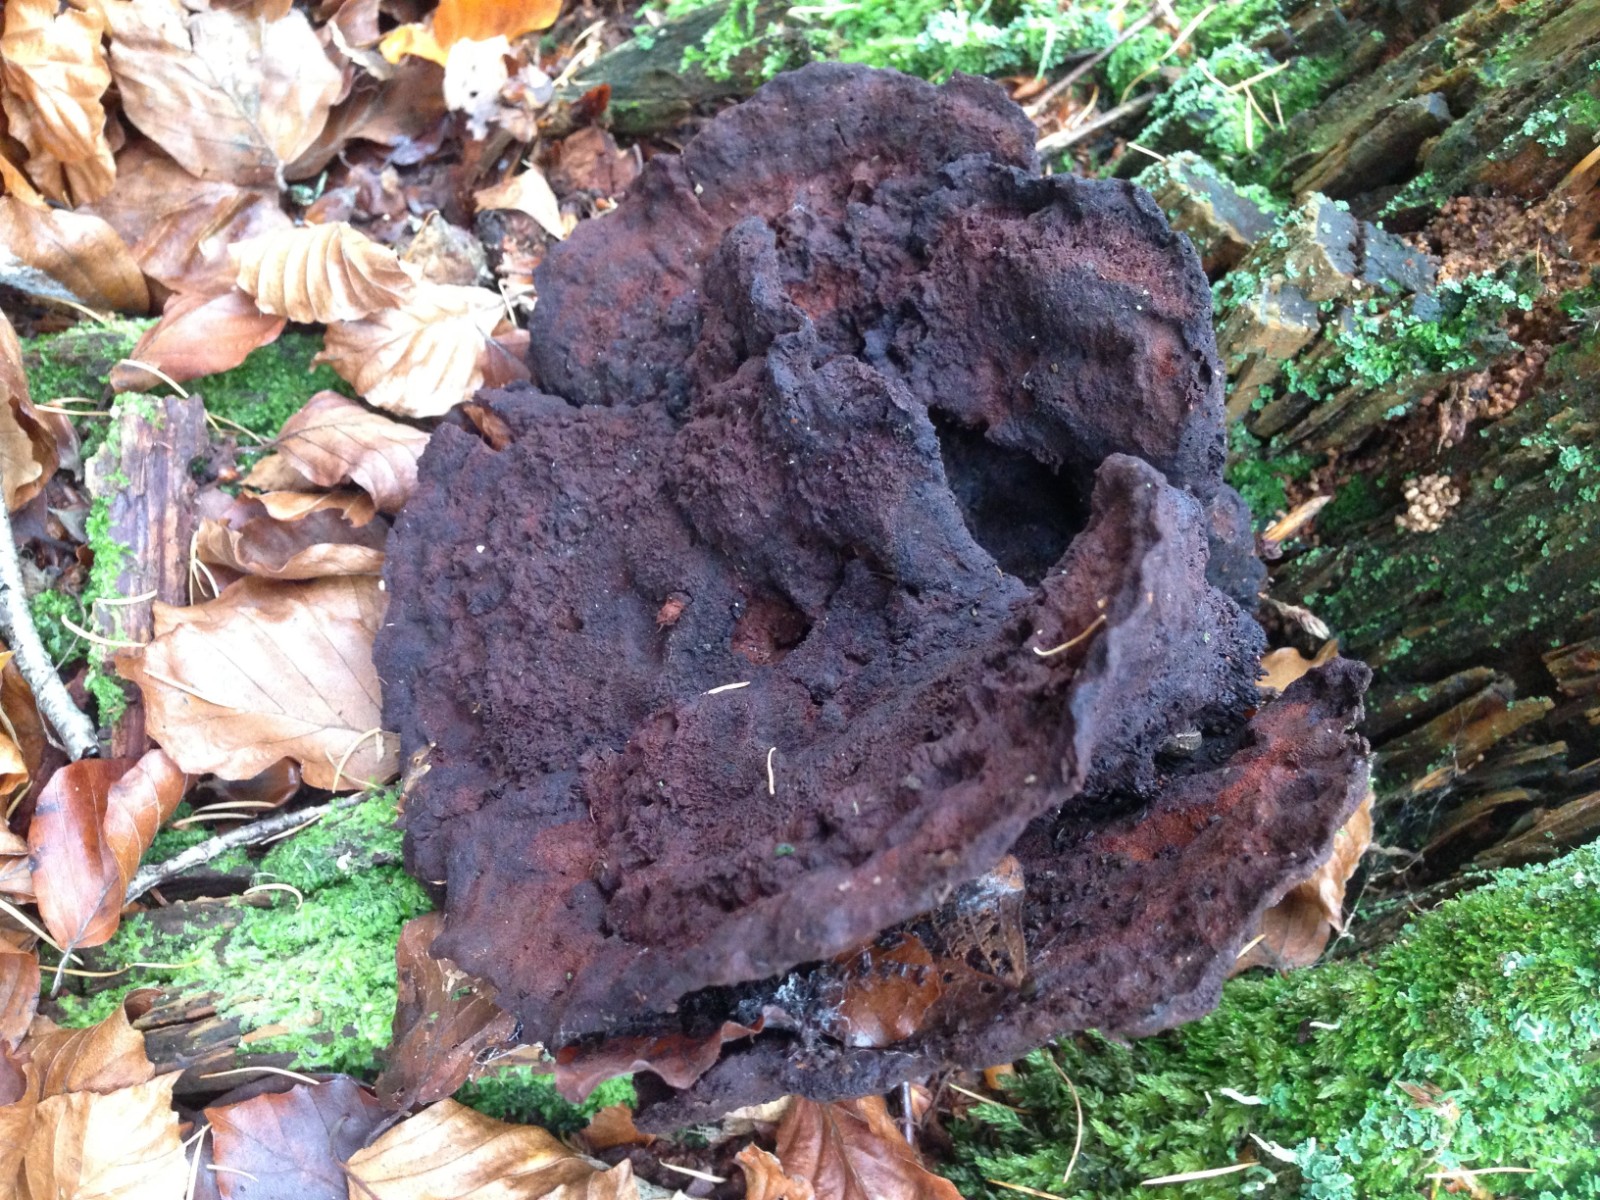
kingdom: Fungi
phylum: Basidiomycota
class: Agaricomycetes
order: Polyporales
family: Laetiporaceae
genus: Phaeolus
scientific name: Phaeolus schweinitzii
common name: brunporesvamp
